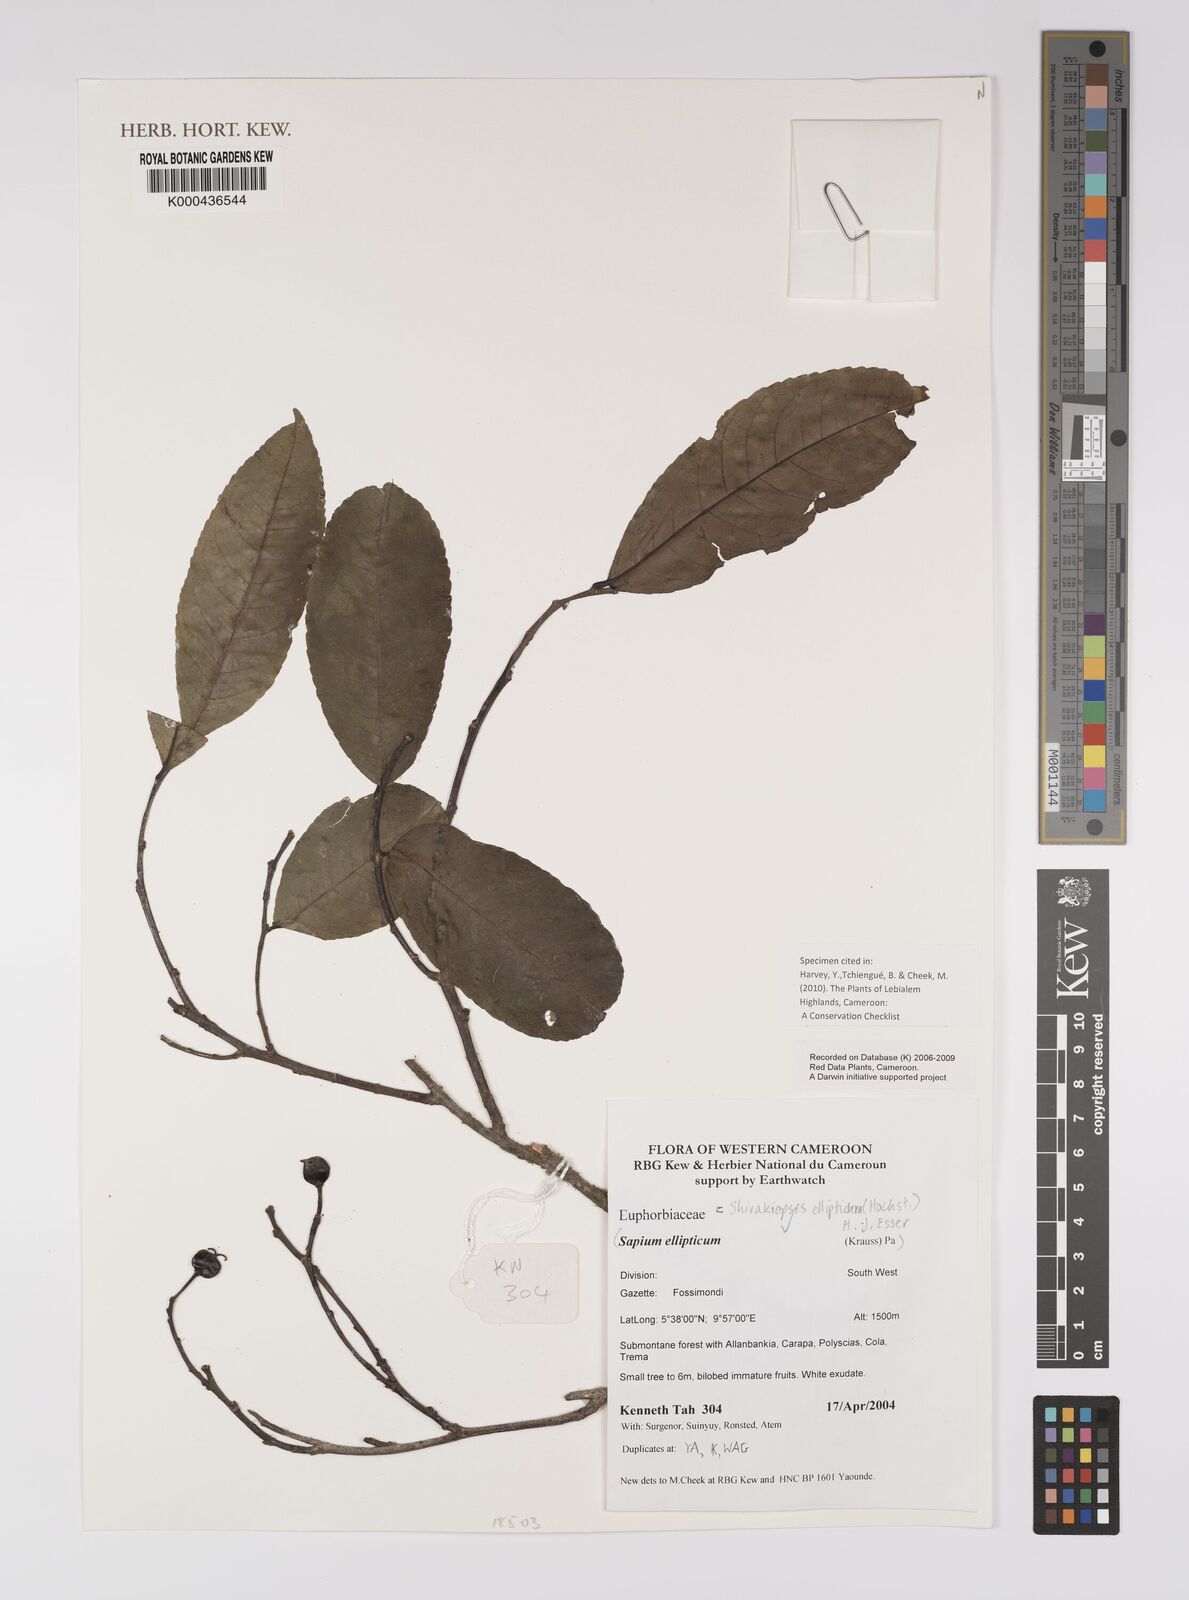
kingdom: Plantae
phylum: Tracheophyta
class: Magnoliopsida
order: Malpighiales
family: Euphorbiaceae
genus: Shirakiopsis
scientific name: Shirakiopsis elliptica
